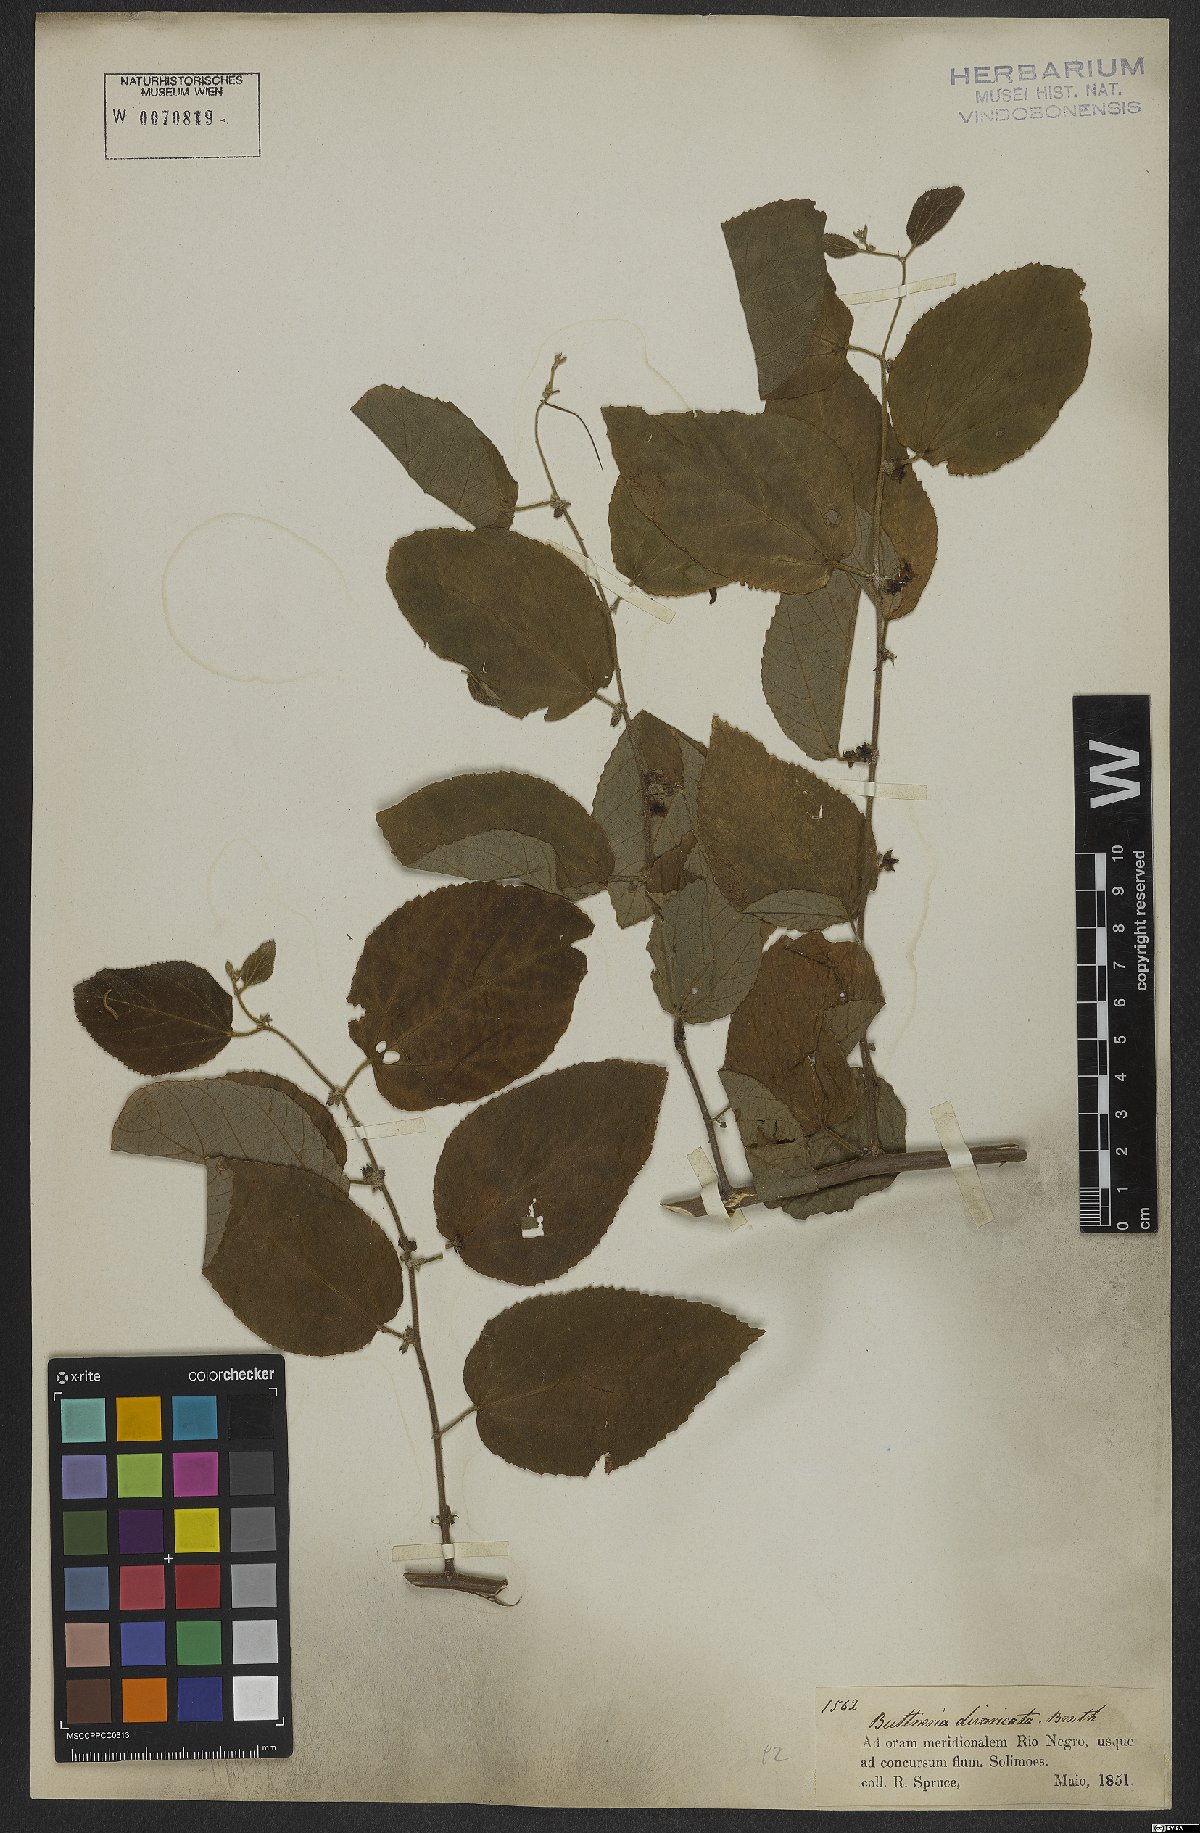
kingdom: Plantae
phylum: Tracheophyta
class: Magnoliopsida
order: Malvales
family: Malvaceae
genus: Byttneria
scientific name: Byttneria divaricata
